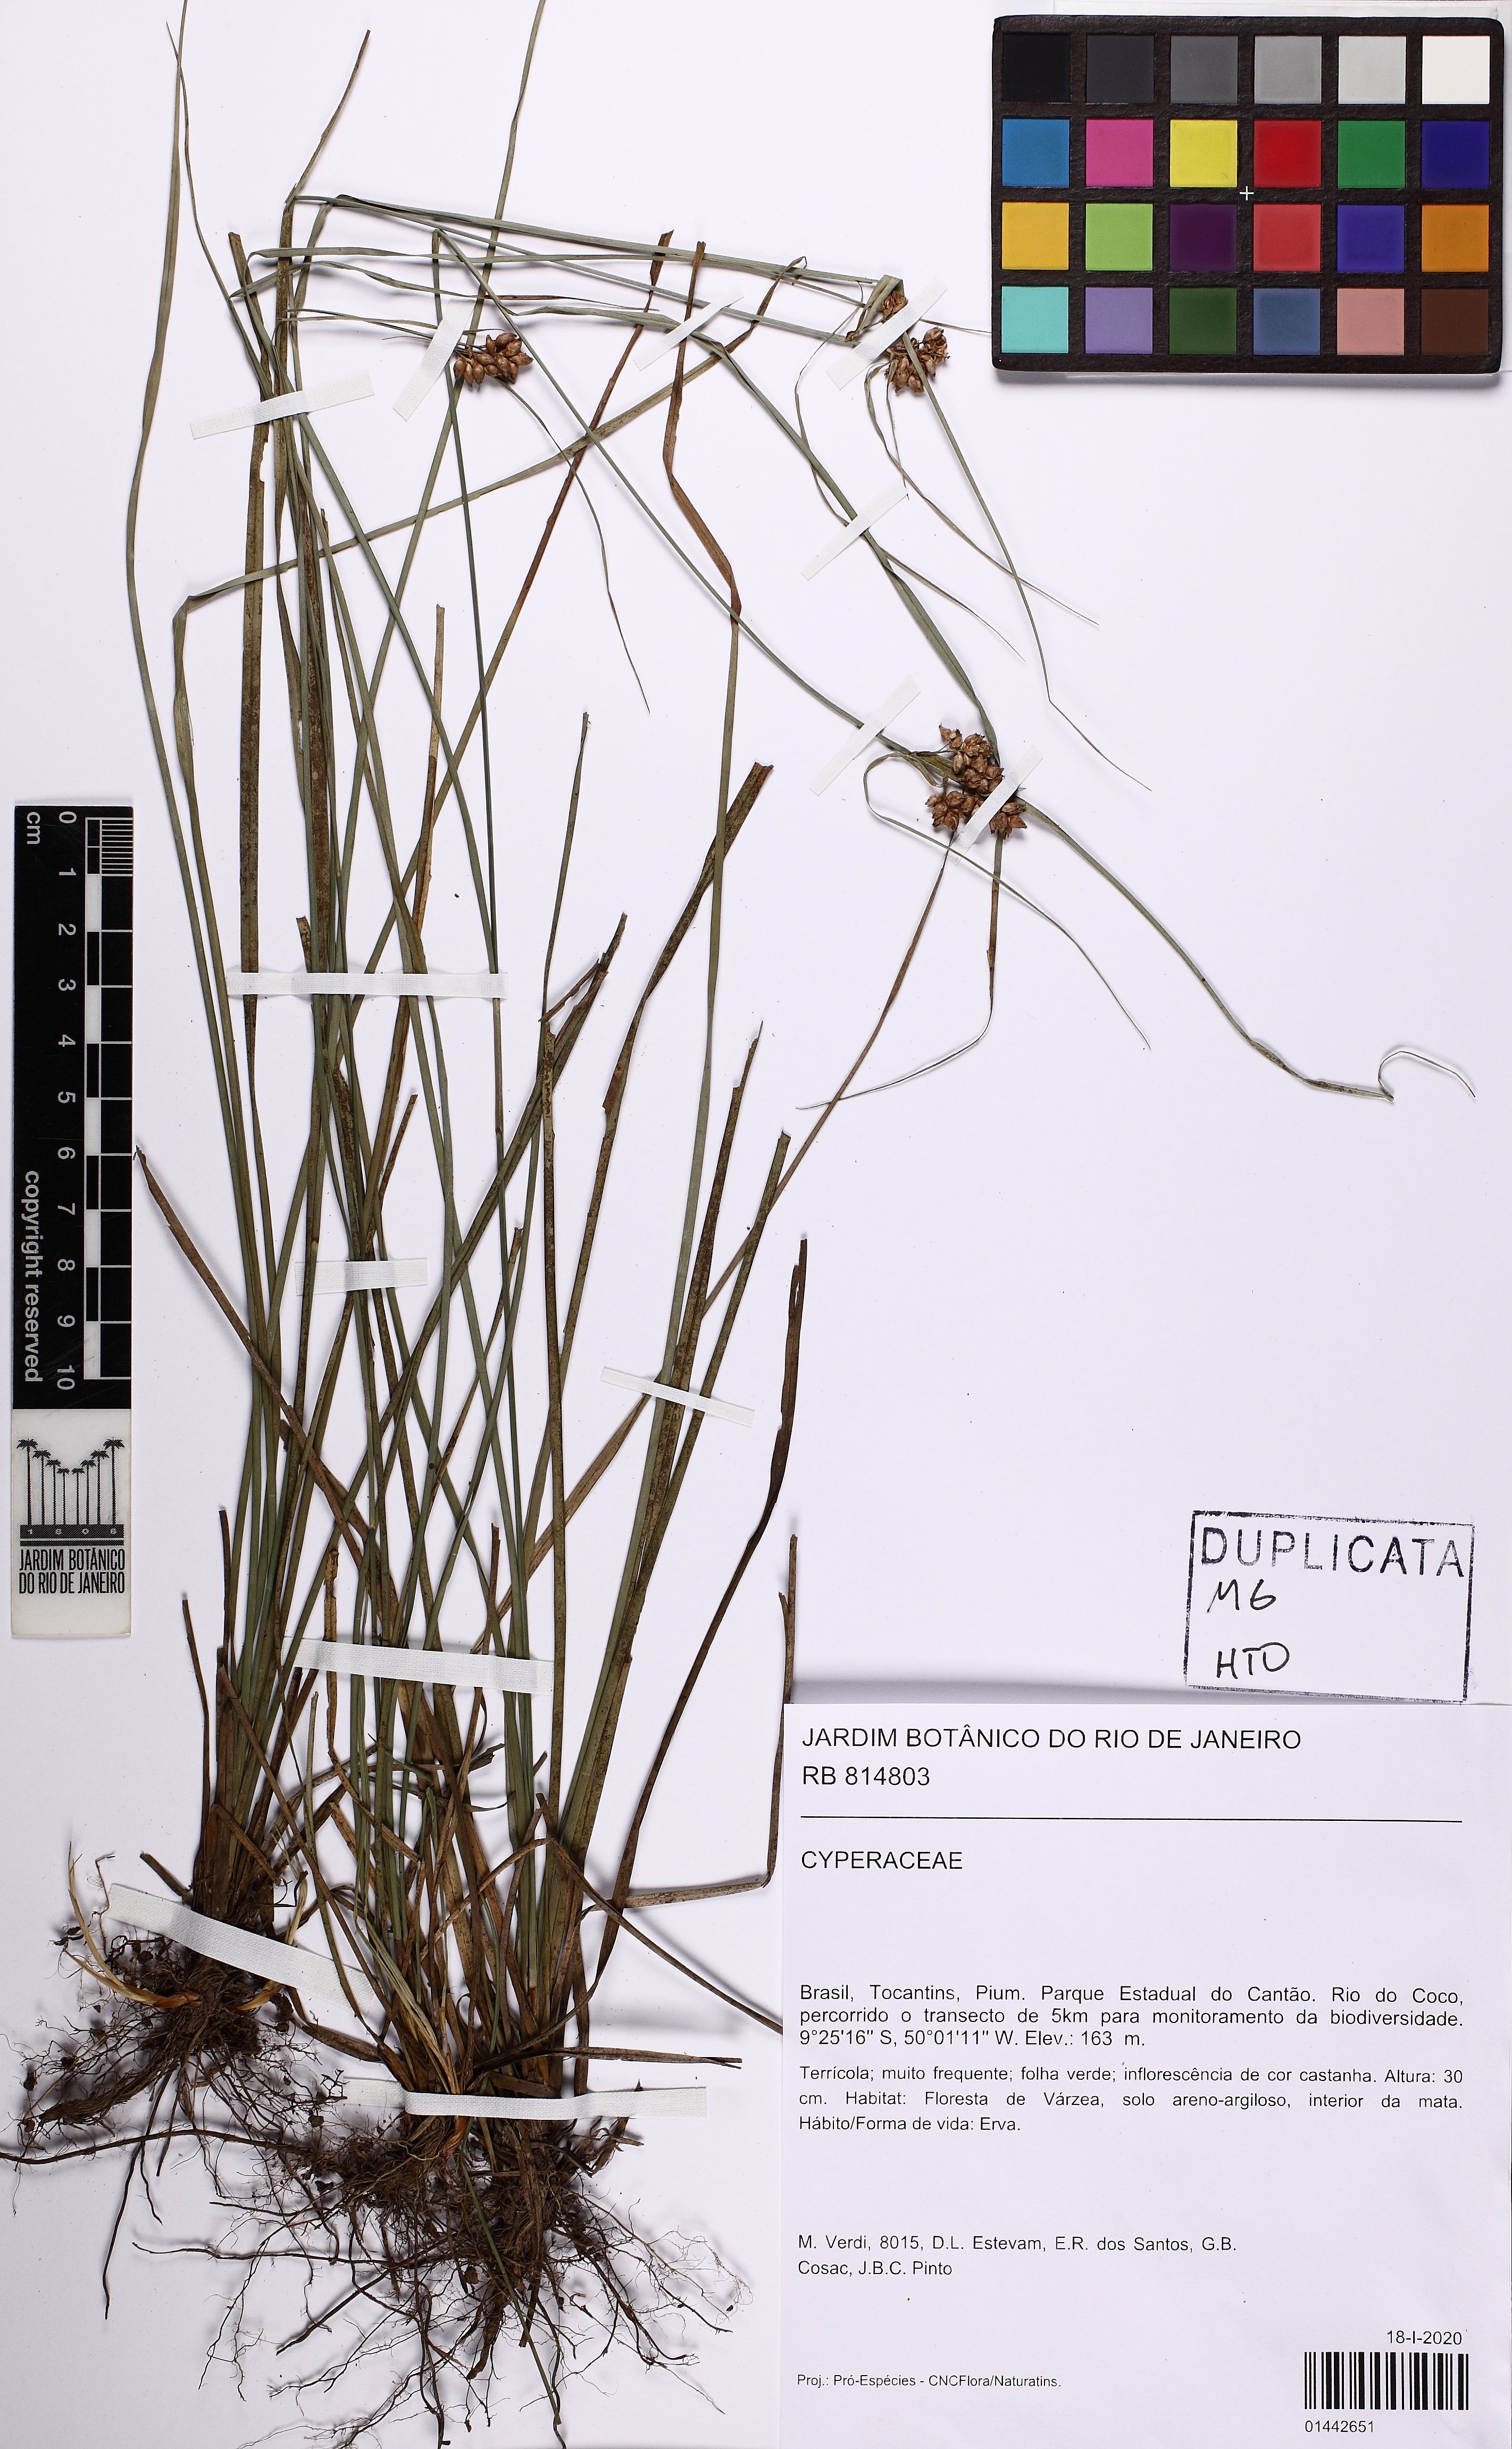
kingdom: Plantae
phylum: Tracheophyta
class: Liliopsida
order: Poales
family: Cyperaceae
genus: Rhynchospora
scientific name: Rhynchospora
